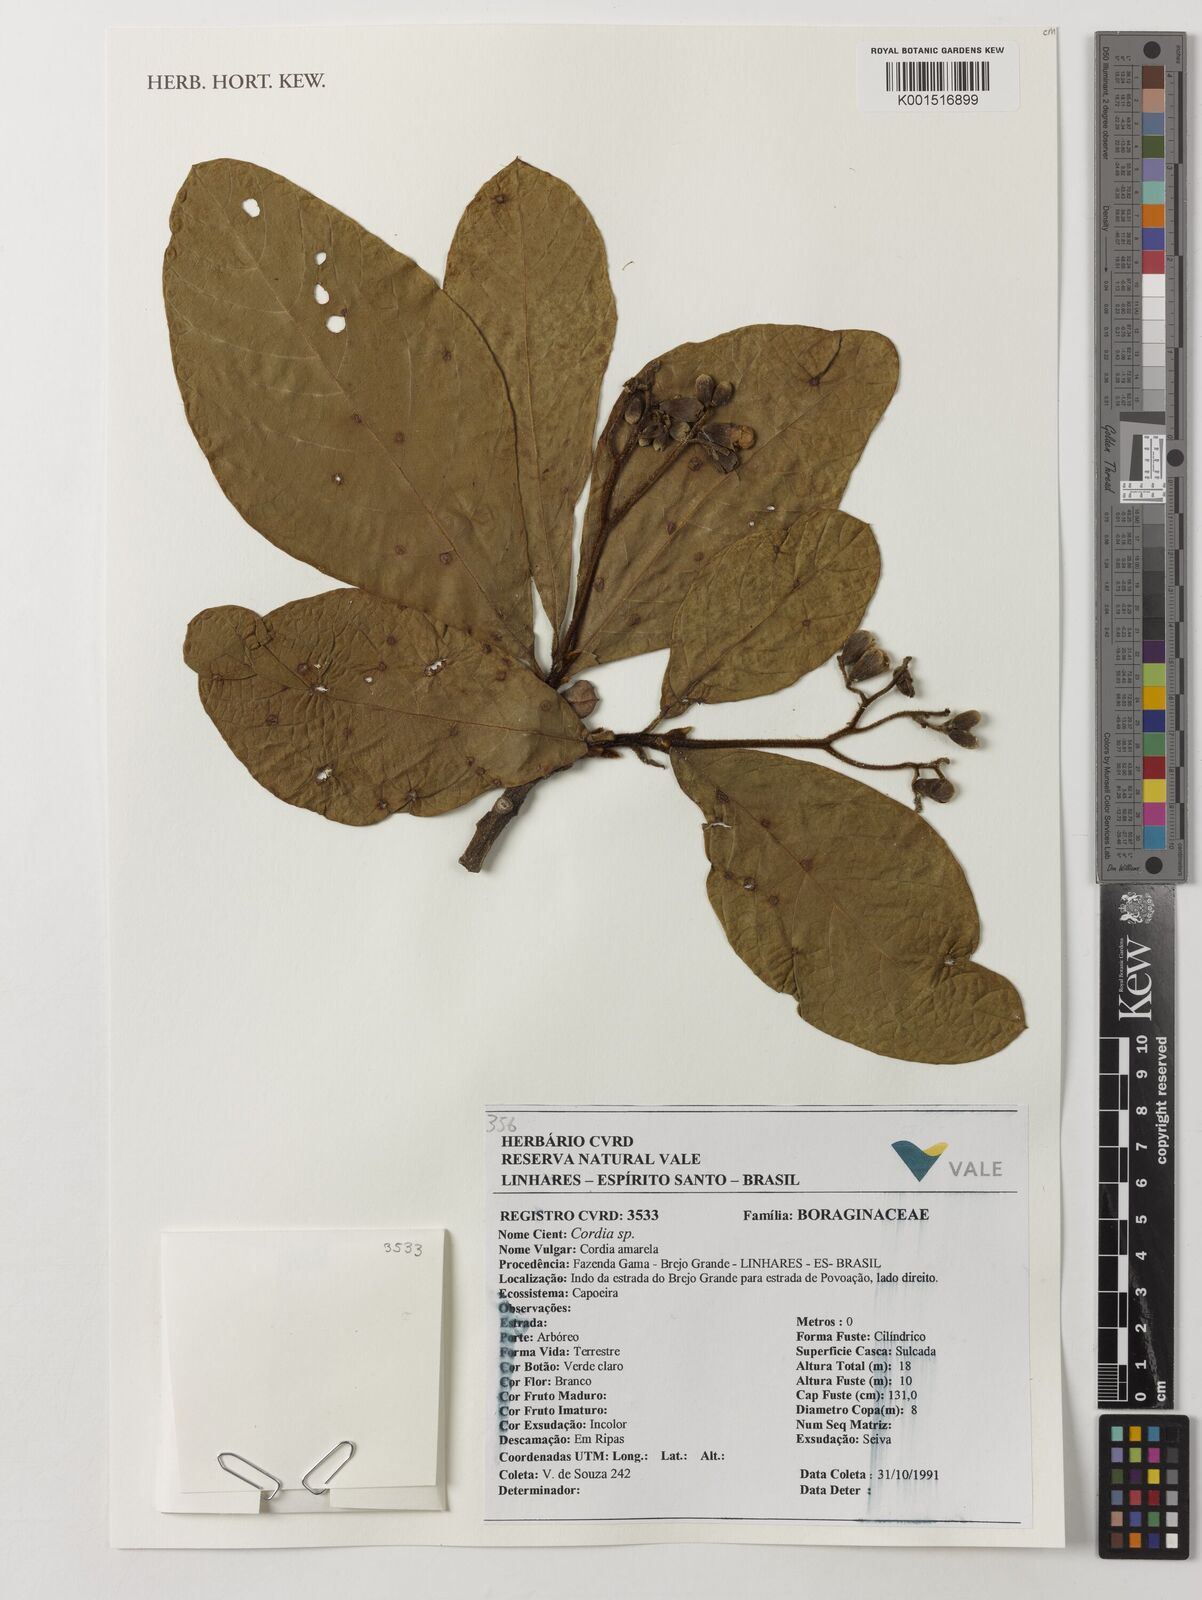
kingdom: Plantae
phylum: Tracheophyta
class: Magnoliopsida
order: Boraginales
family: Cordiaceae
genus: Cordia
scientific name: Cordia
